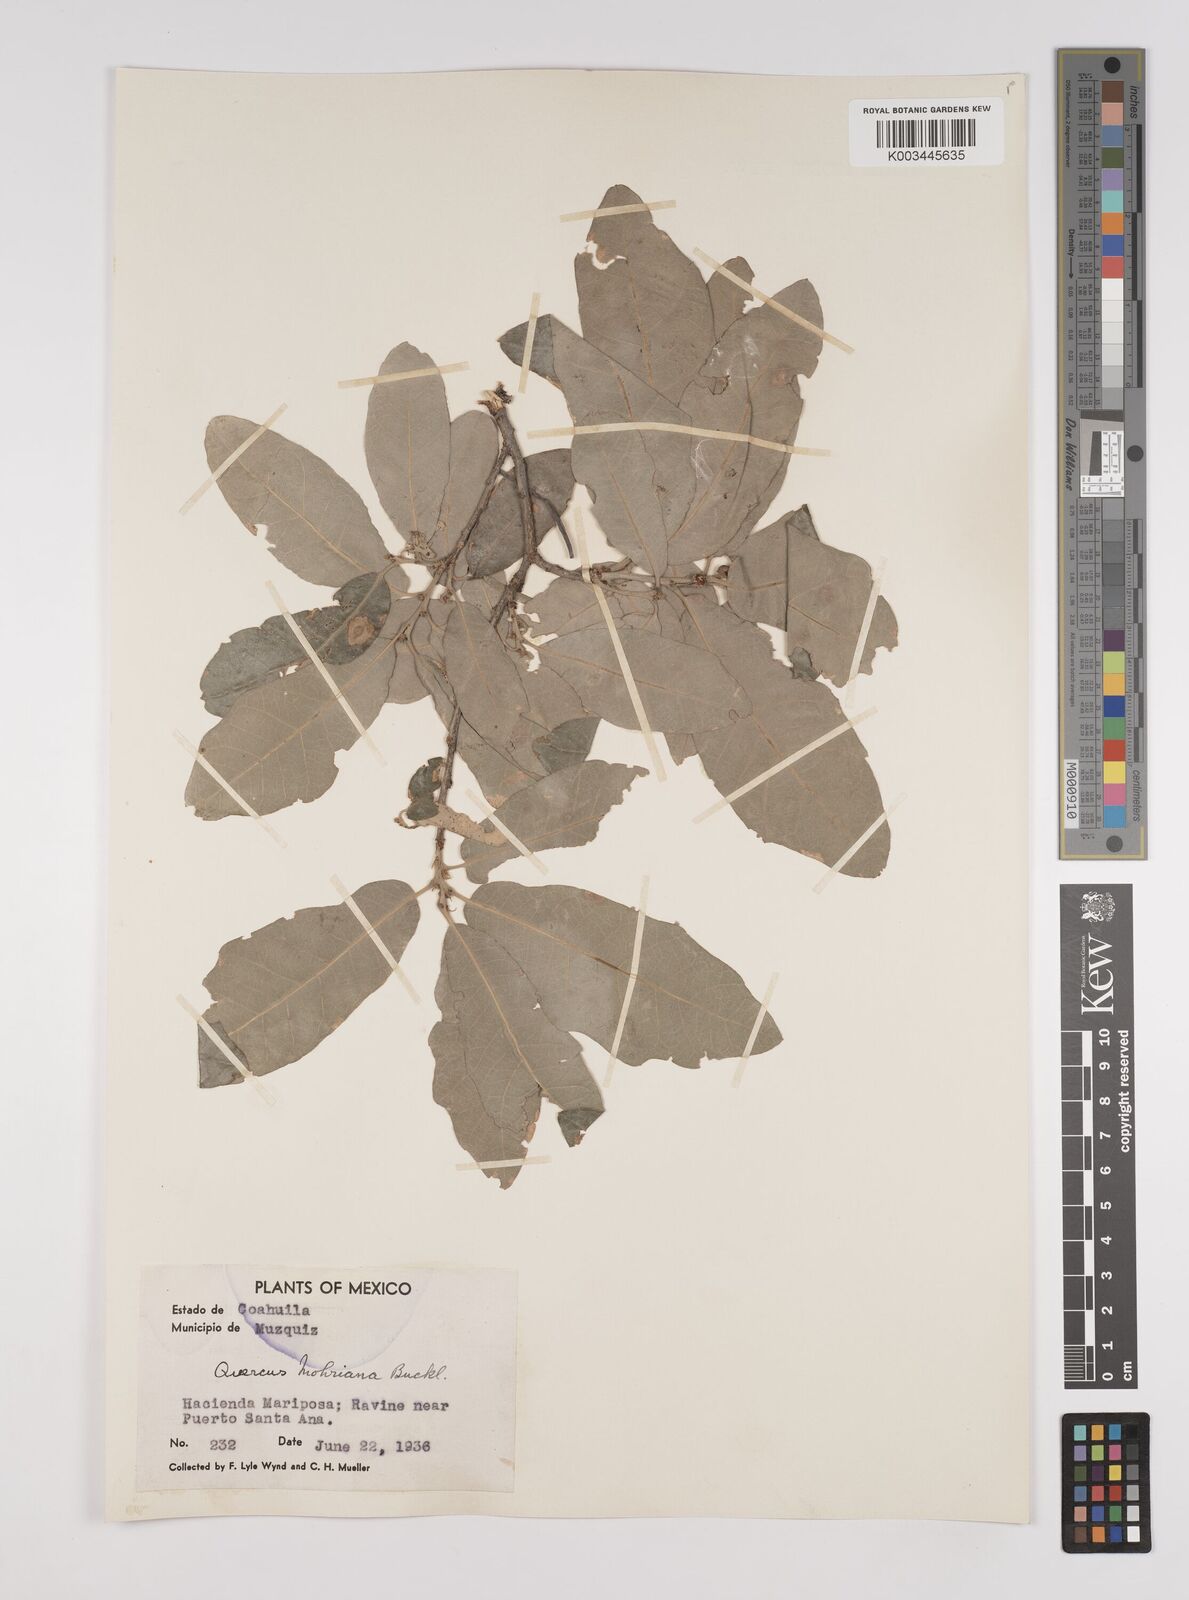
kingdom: Plantae
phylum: Tracheophyta
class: Magnoliopsida
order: Fagales
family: Fagaceae
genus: Quercus
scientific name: Quercus mohriana
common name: Mohr oak
